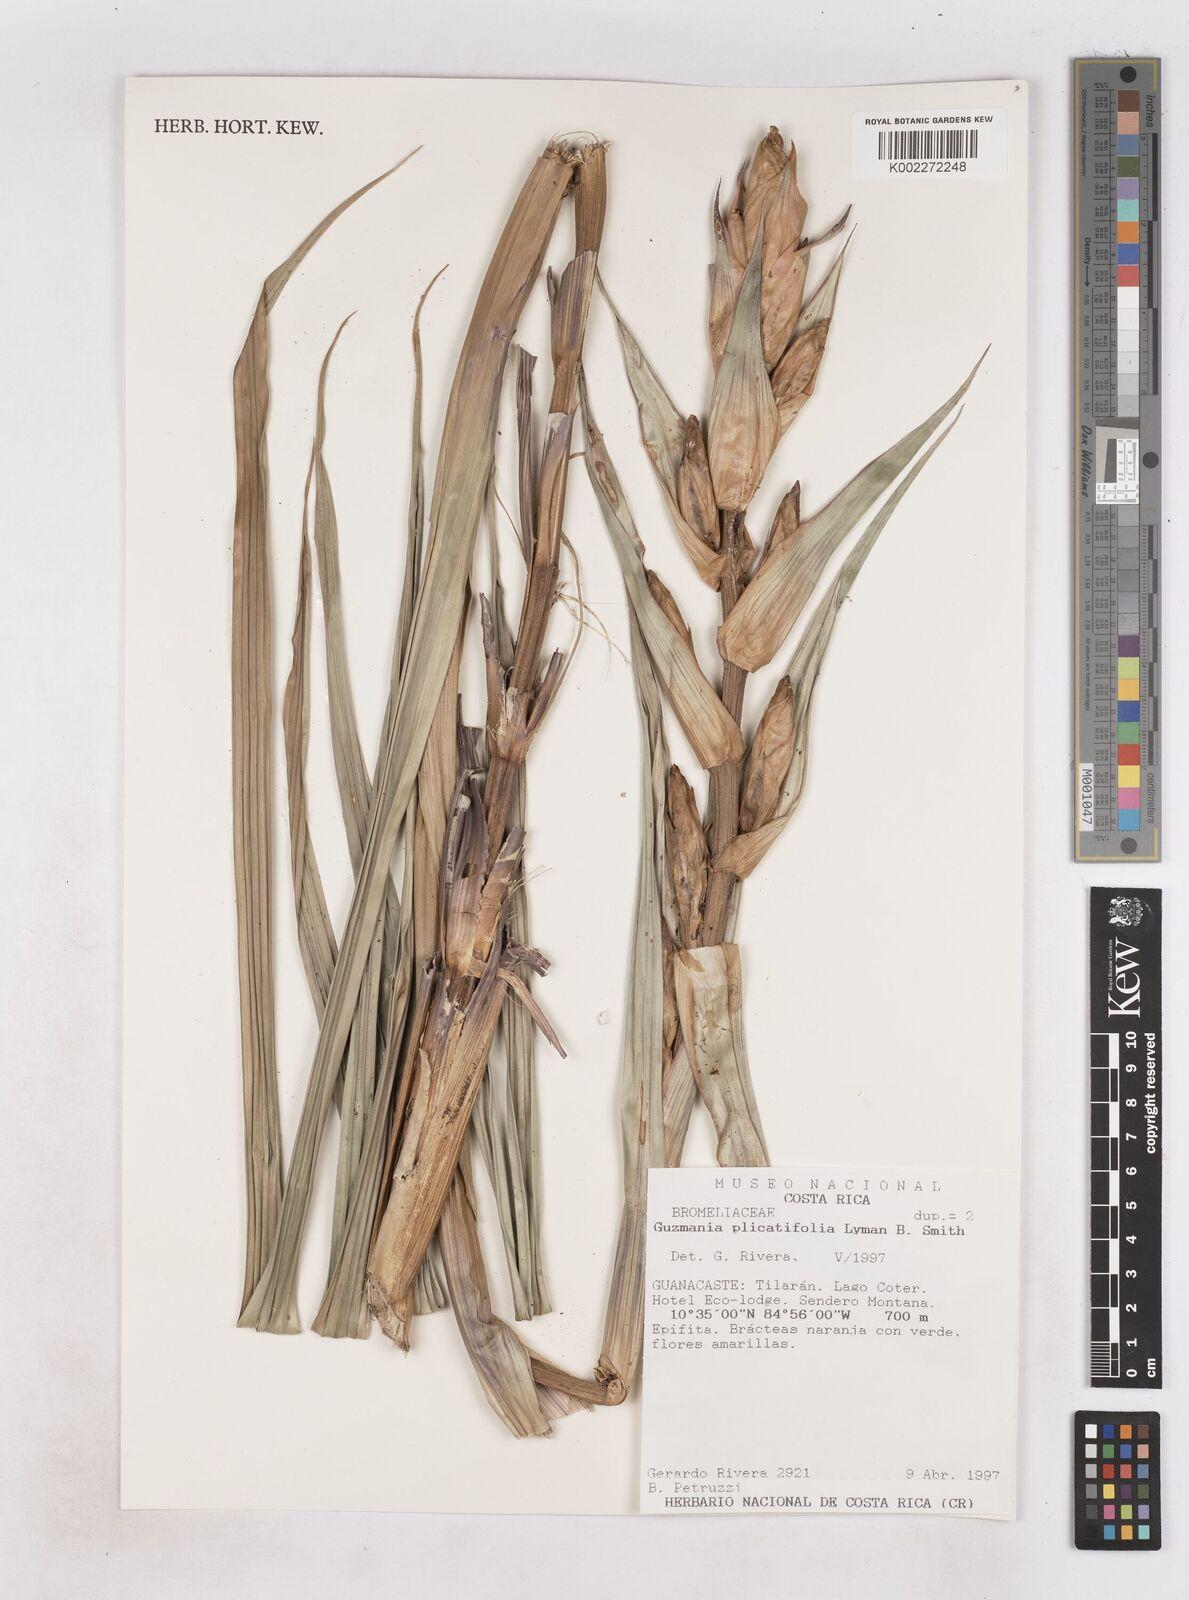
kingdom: Plantae
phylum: Tracheophyta
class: Liliopsida
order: Poales
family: Bromeliaceae
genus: Guzmania
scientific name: Guzmania plicatifolia
